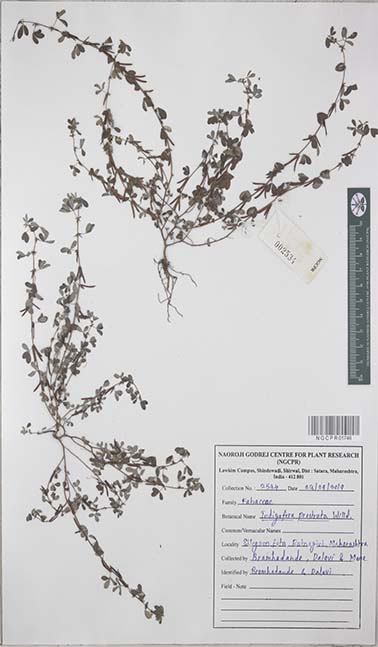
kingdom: Plantae
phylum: Tracheophyta
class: Magnoliopsida
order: Fabales
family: Fabaceae
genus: Indigofera
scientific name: Indigofera prostrata
